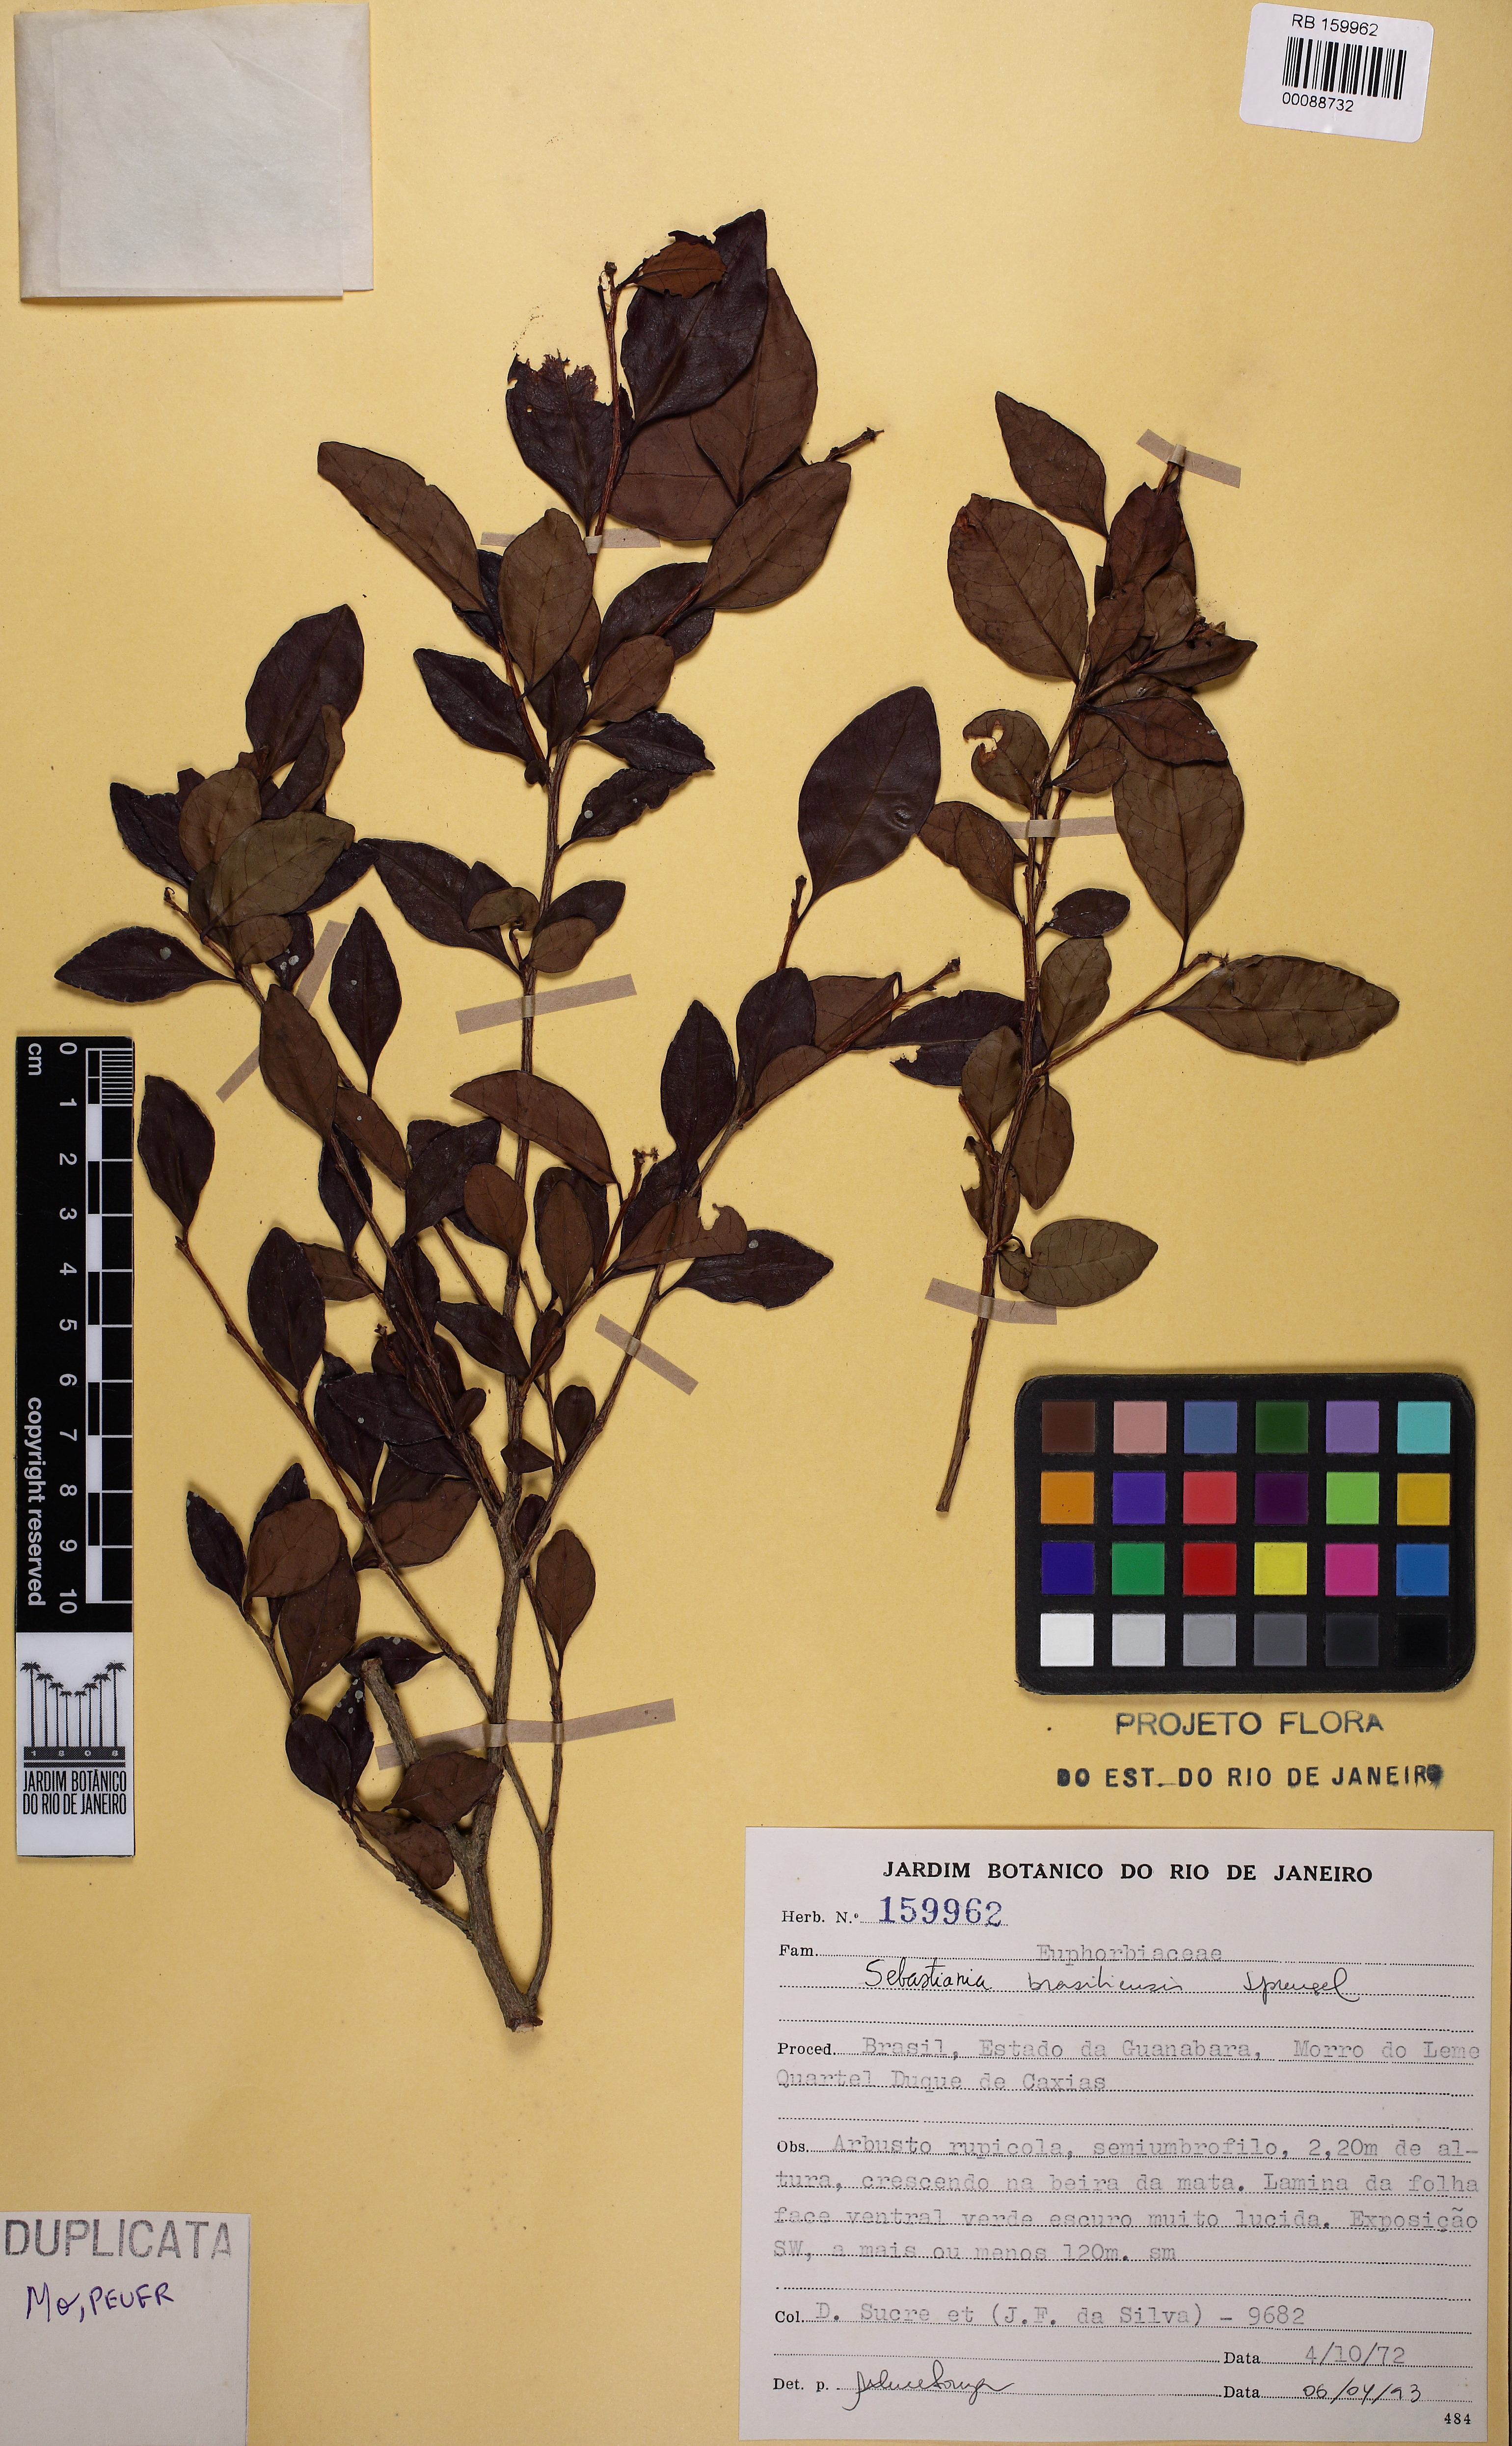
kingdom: Plantae
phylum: Tracheophyta
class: Magnoliopsida
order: Malpighiales
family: Euphorbiaceae
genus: Sebastiania
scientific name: Sebastiania brasiliensis
